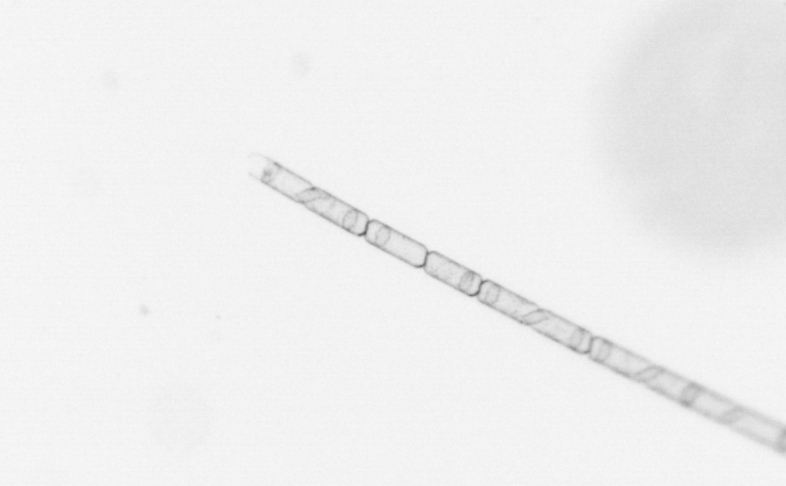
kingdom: Chromista
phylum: Ochrophyta
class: Bacillariophyceae
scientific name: Bacillariophyceae
